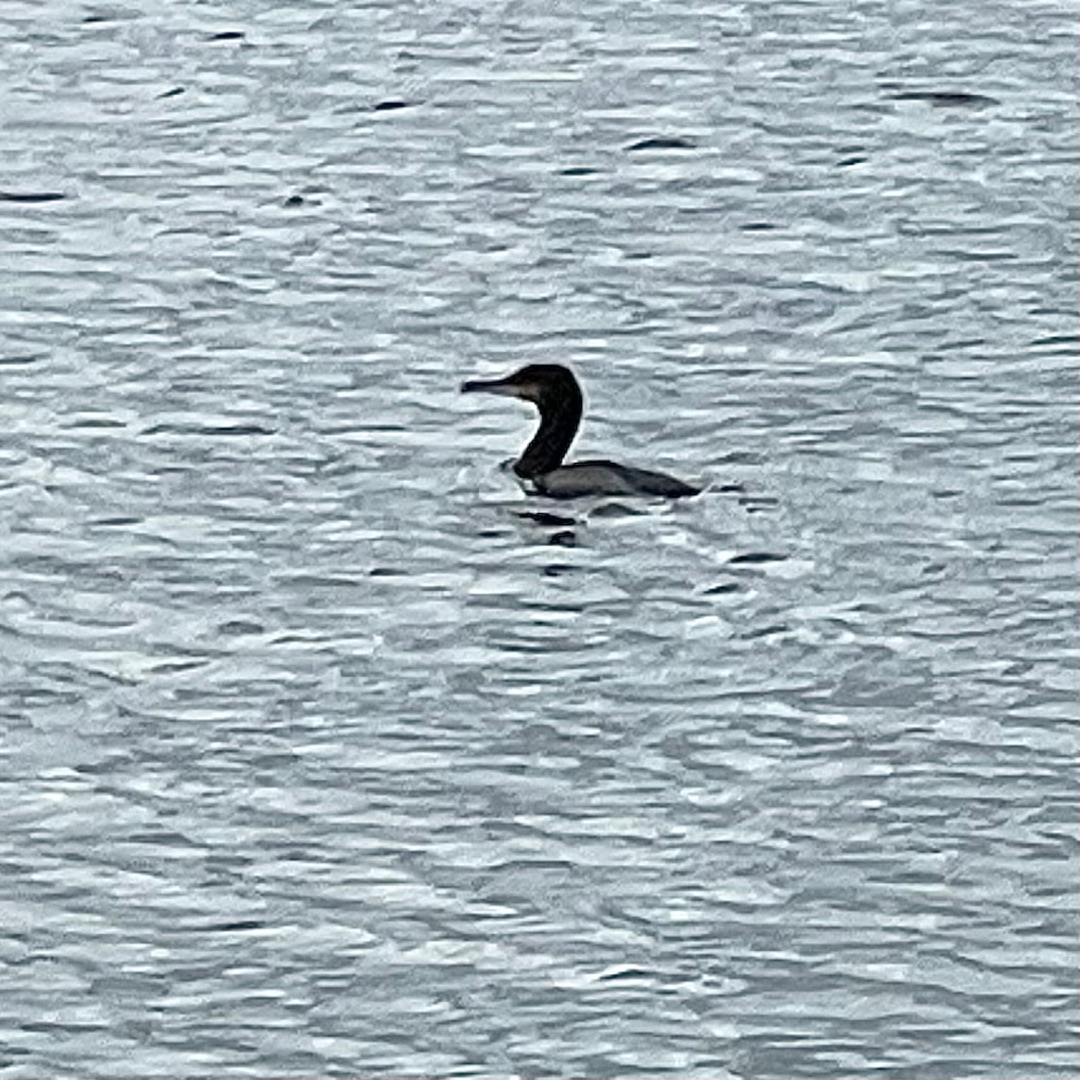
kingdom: Animalia
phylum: Chordata
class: Aves
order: Suliformes
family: Phalacrocoracidae
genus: Phalacrocorax
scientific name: Phalacrocorax carbo
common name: Skarv
